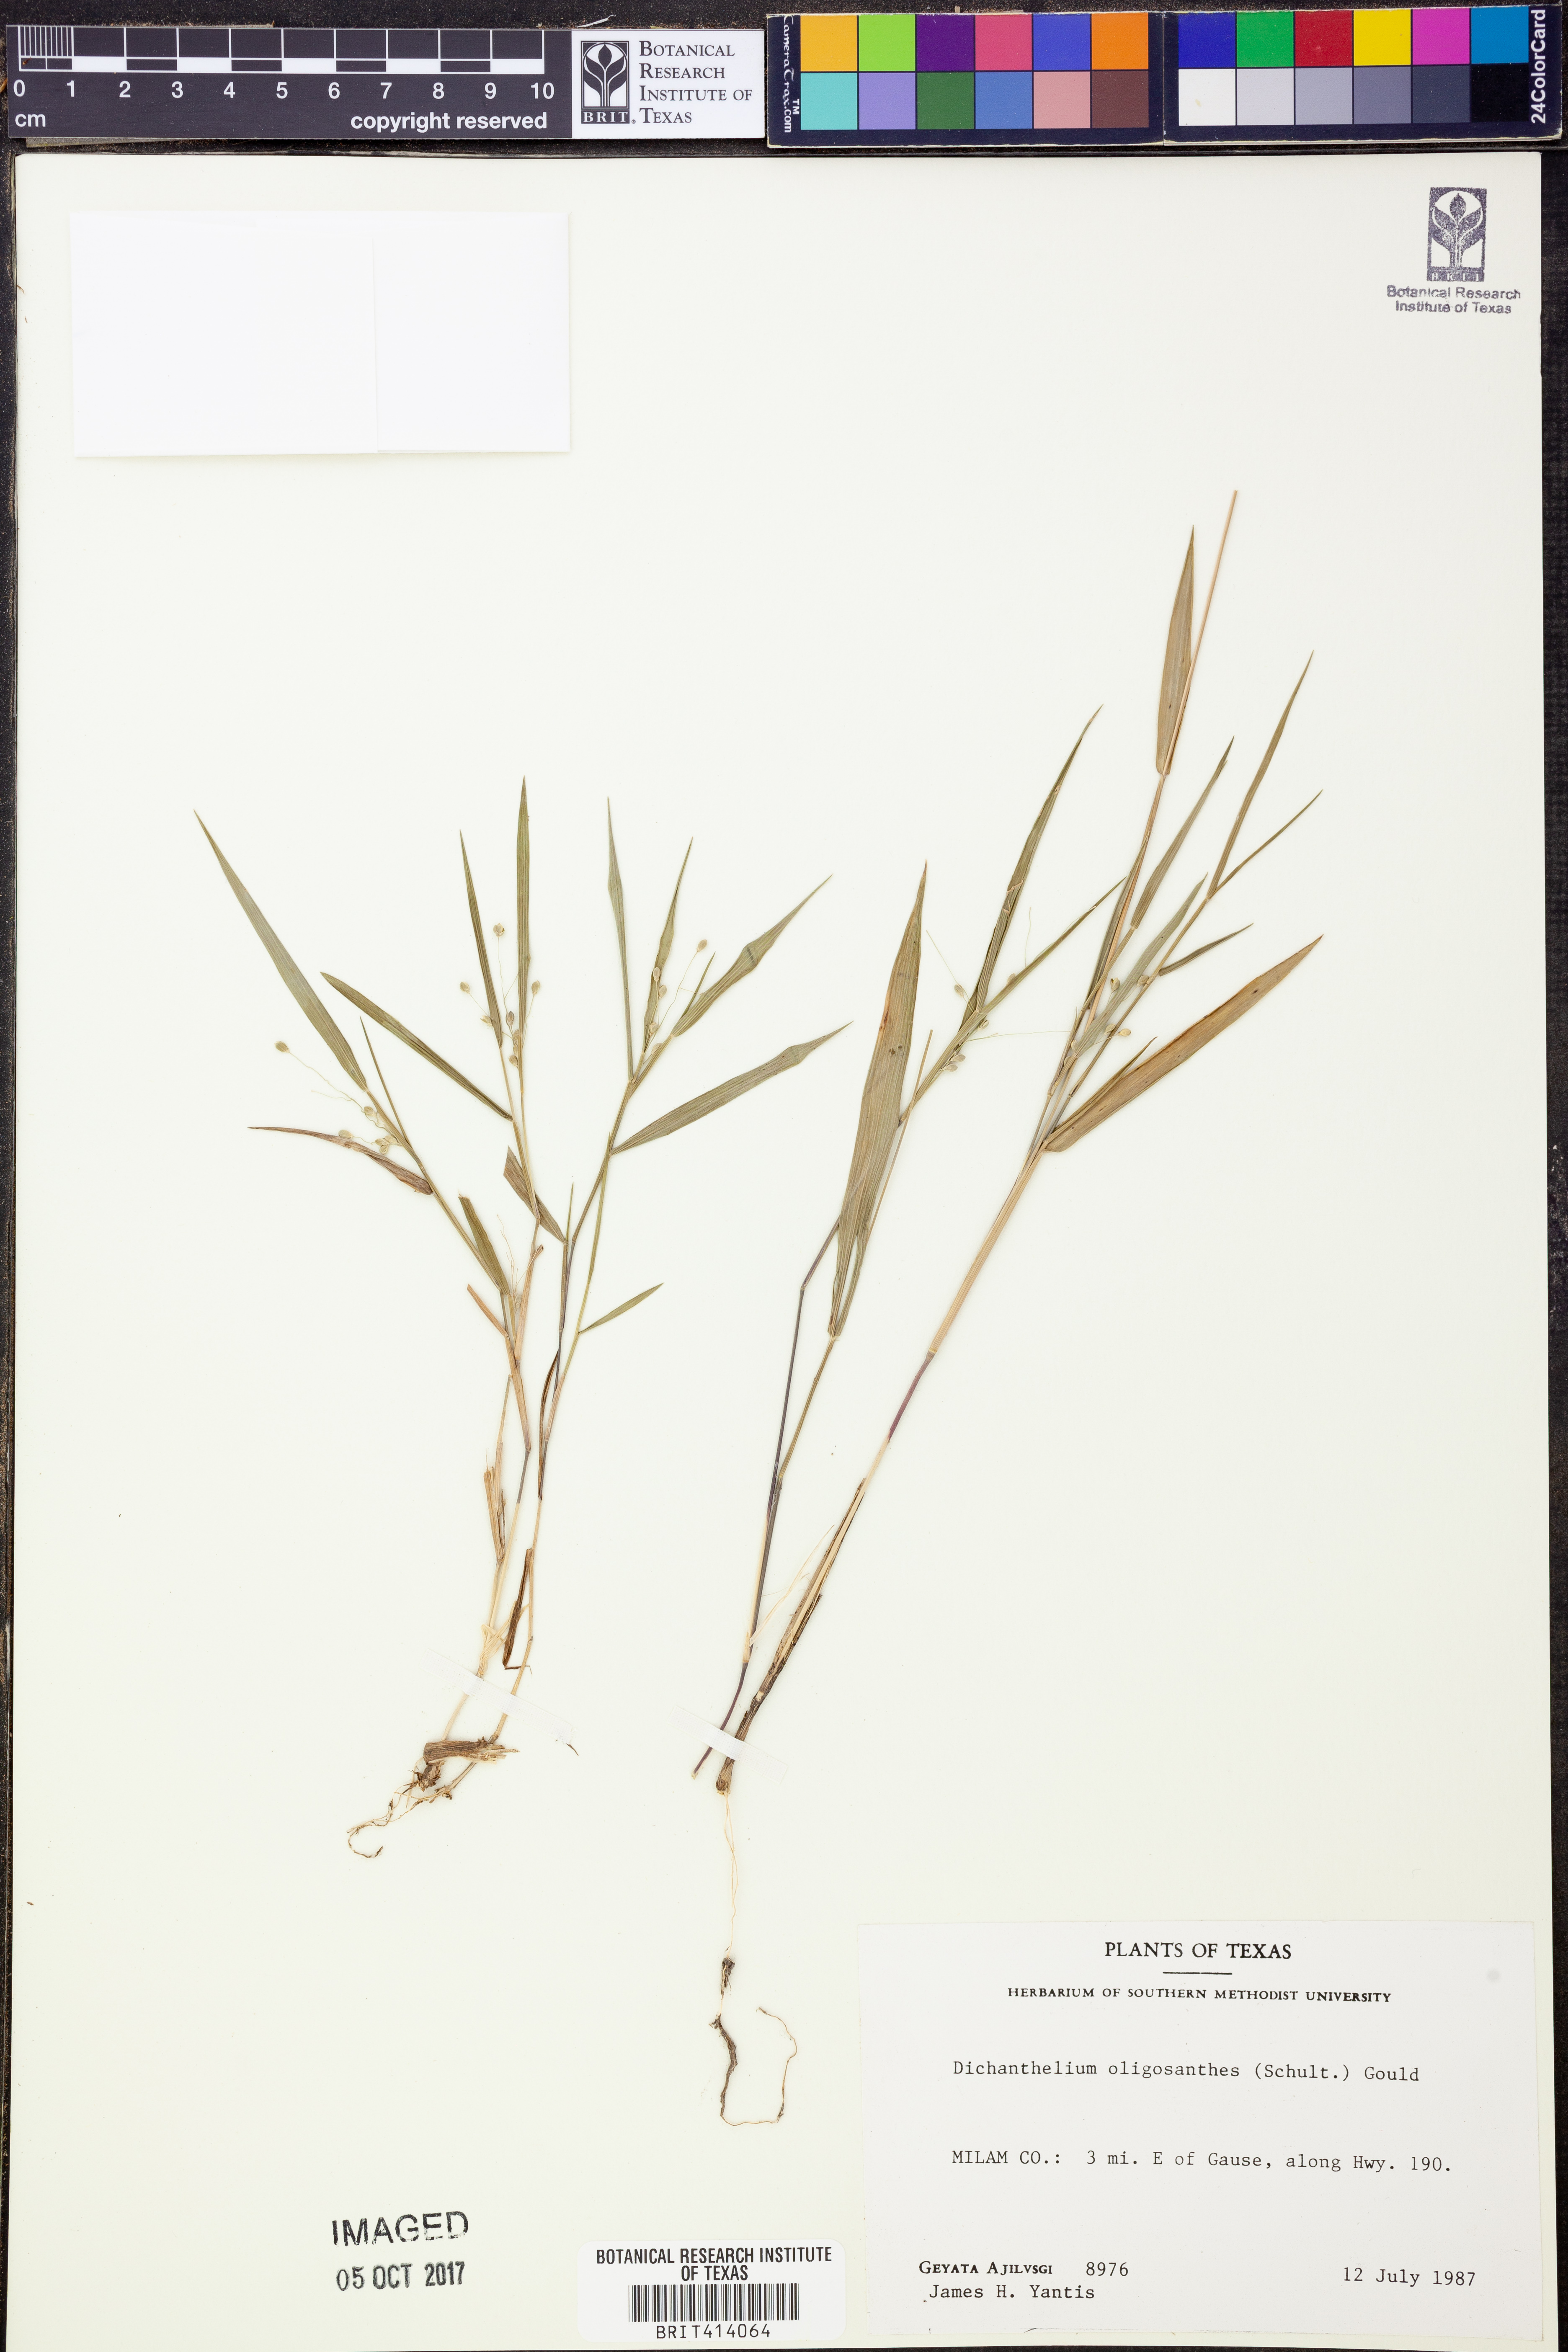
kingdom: Plantae
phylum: Tracheophyta
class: Liliopsida
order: Poales
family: Poaceae
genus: Dichanthelium
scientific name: Dichanthelium oligosanthes
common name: Few-anther obscuregrass
